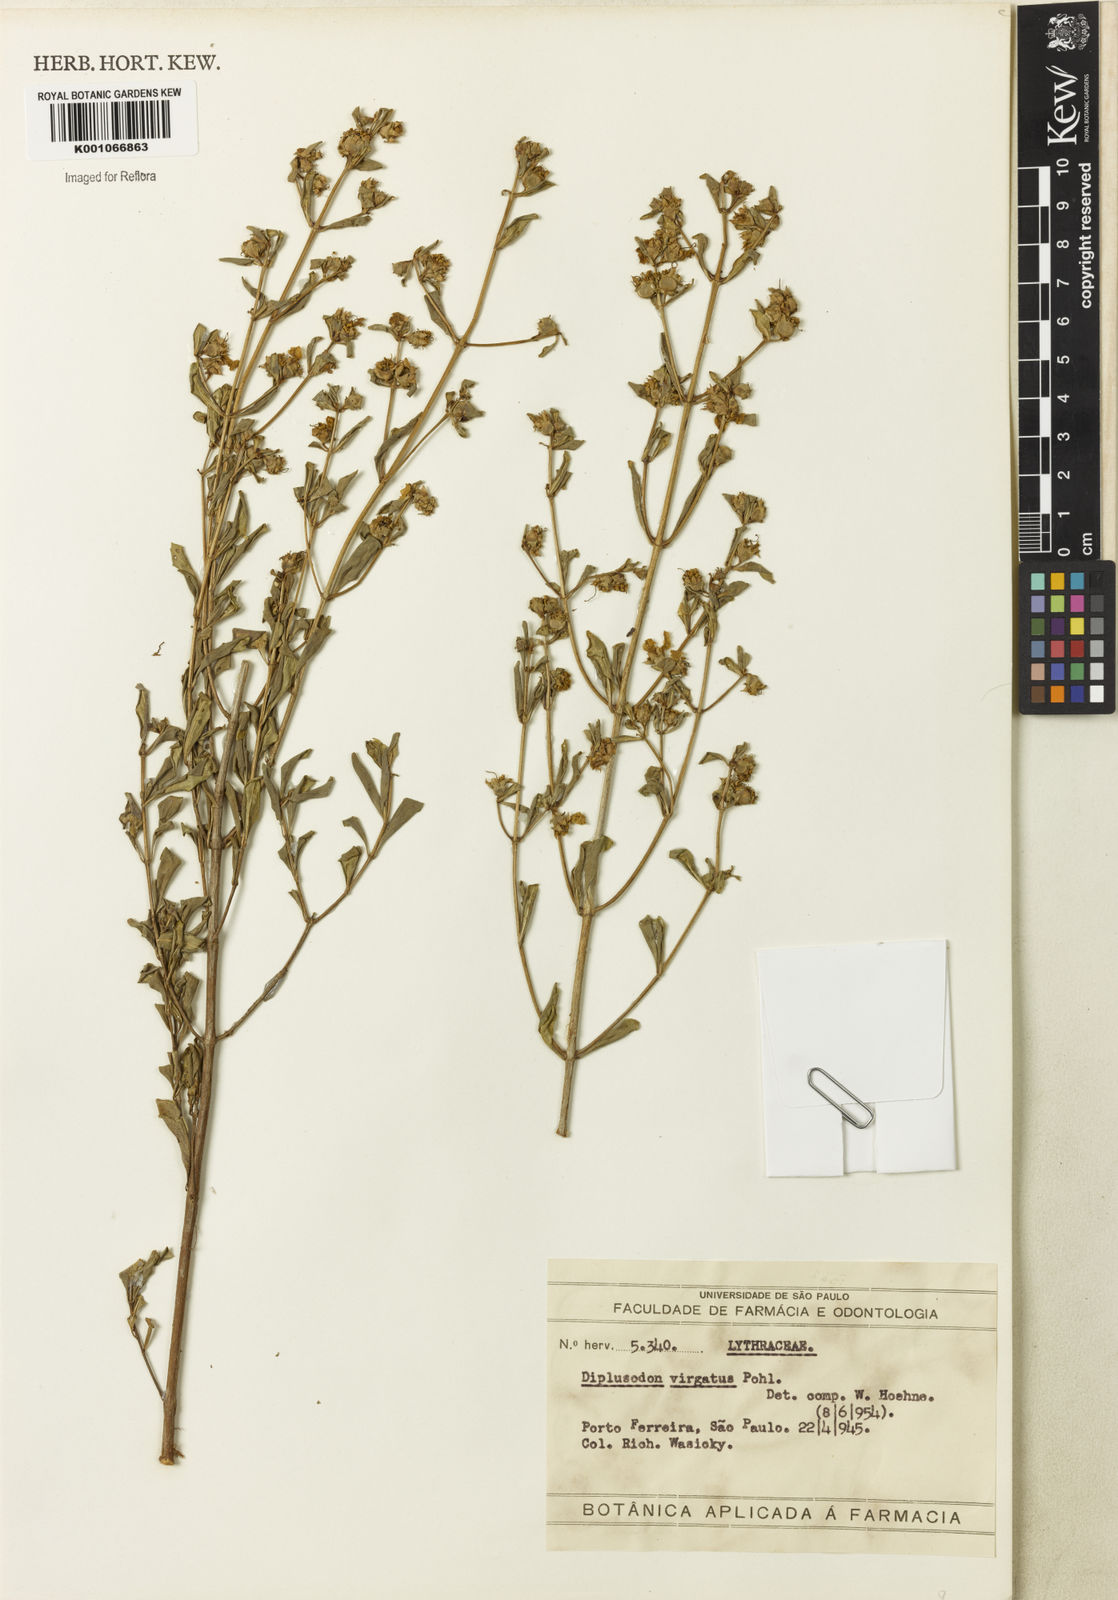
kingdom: Plantae
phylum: Tracheophyta
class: Magnoliopsida
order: Myrtales
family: Lythraceae
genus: Diplusodon
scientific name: Diplusodon virgatus
